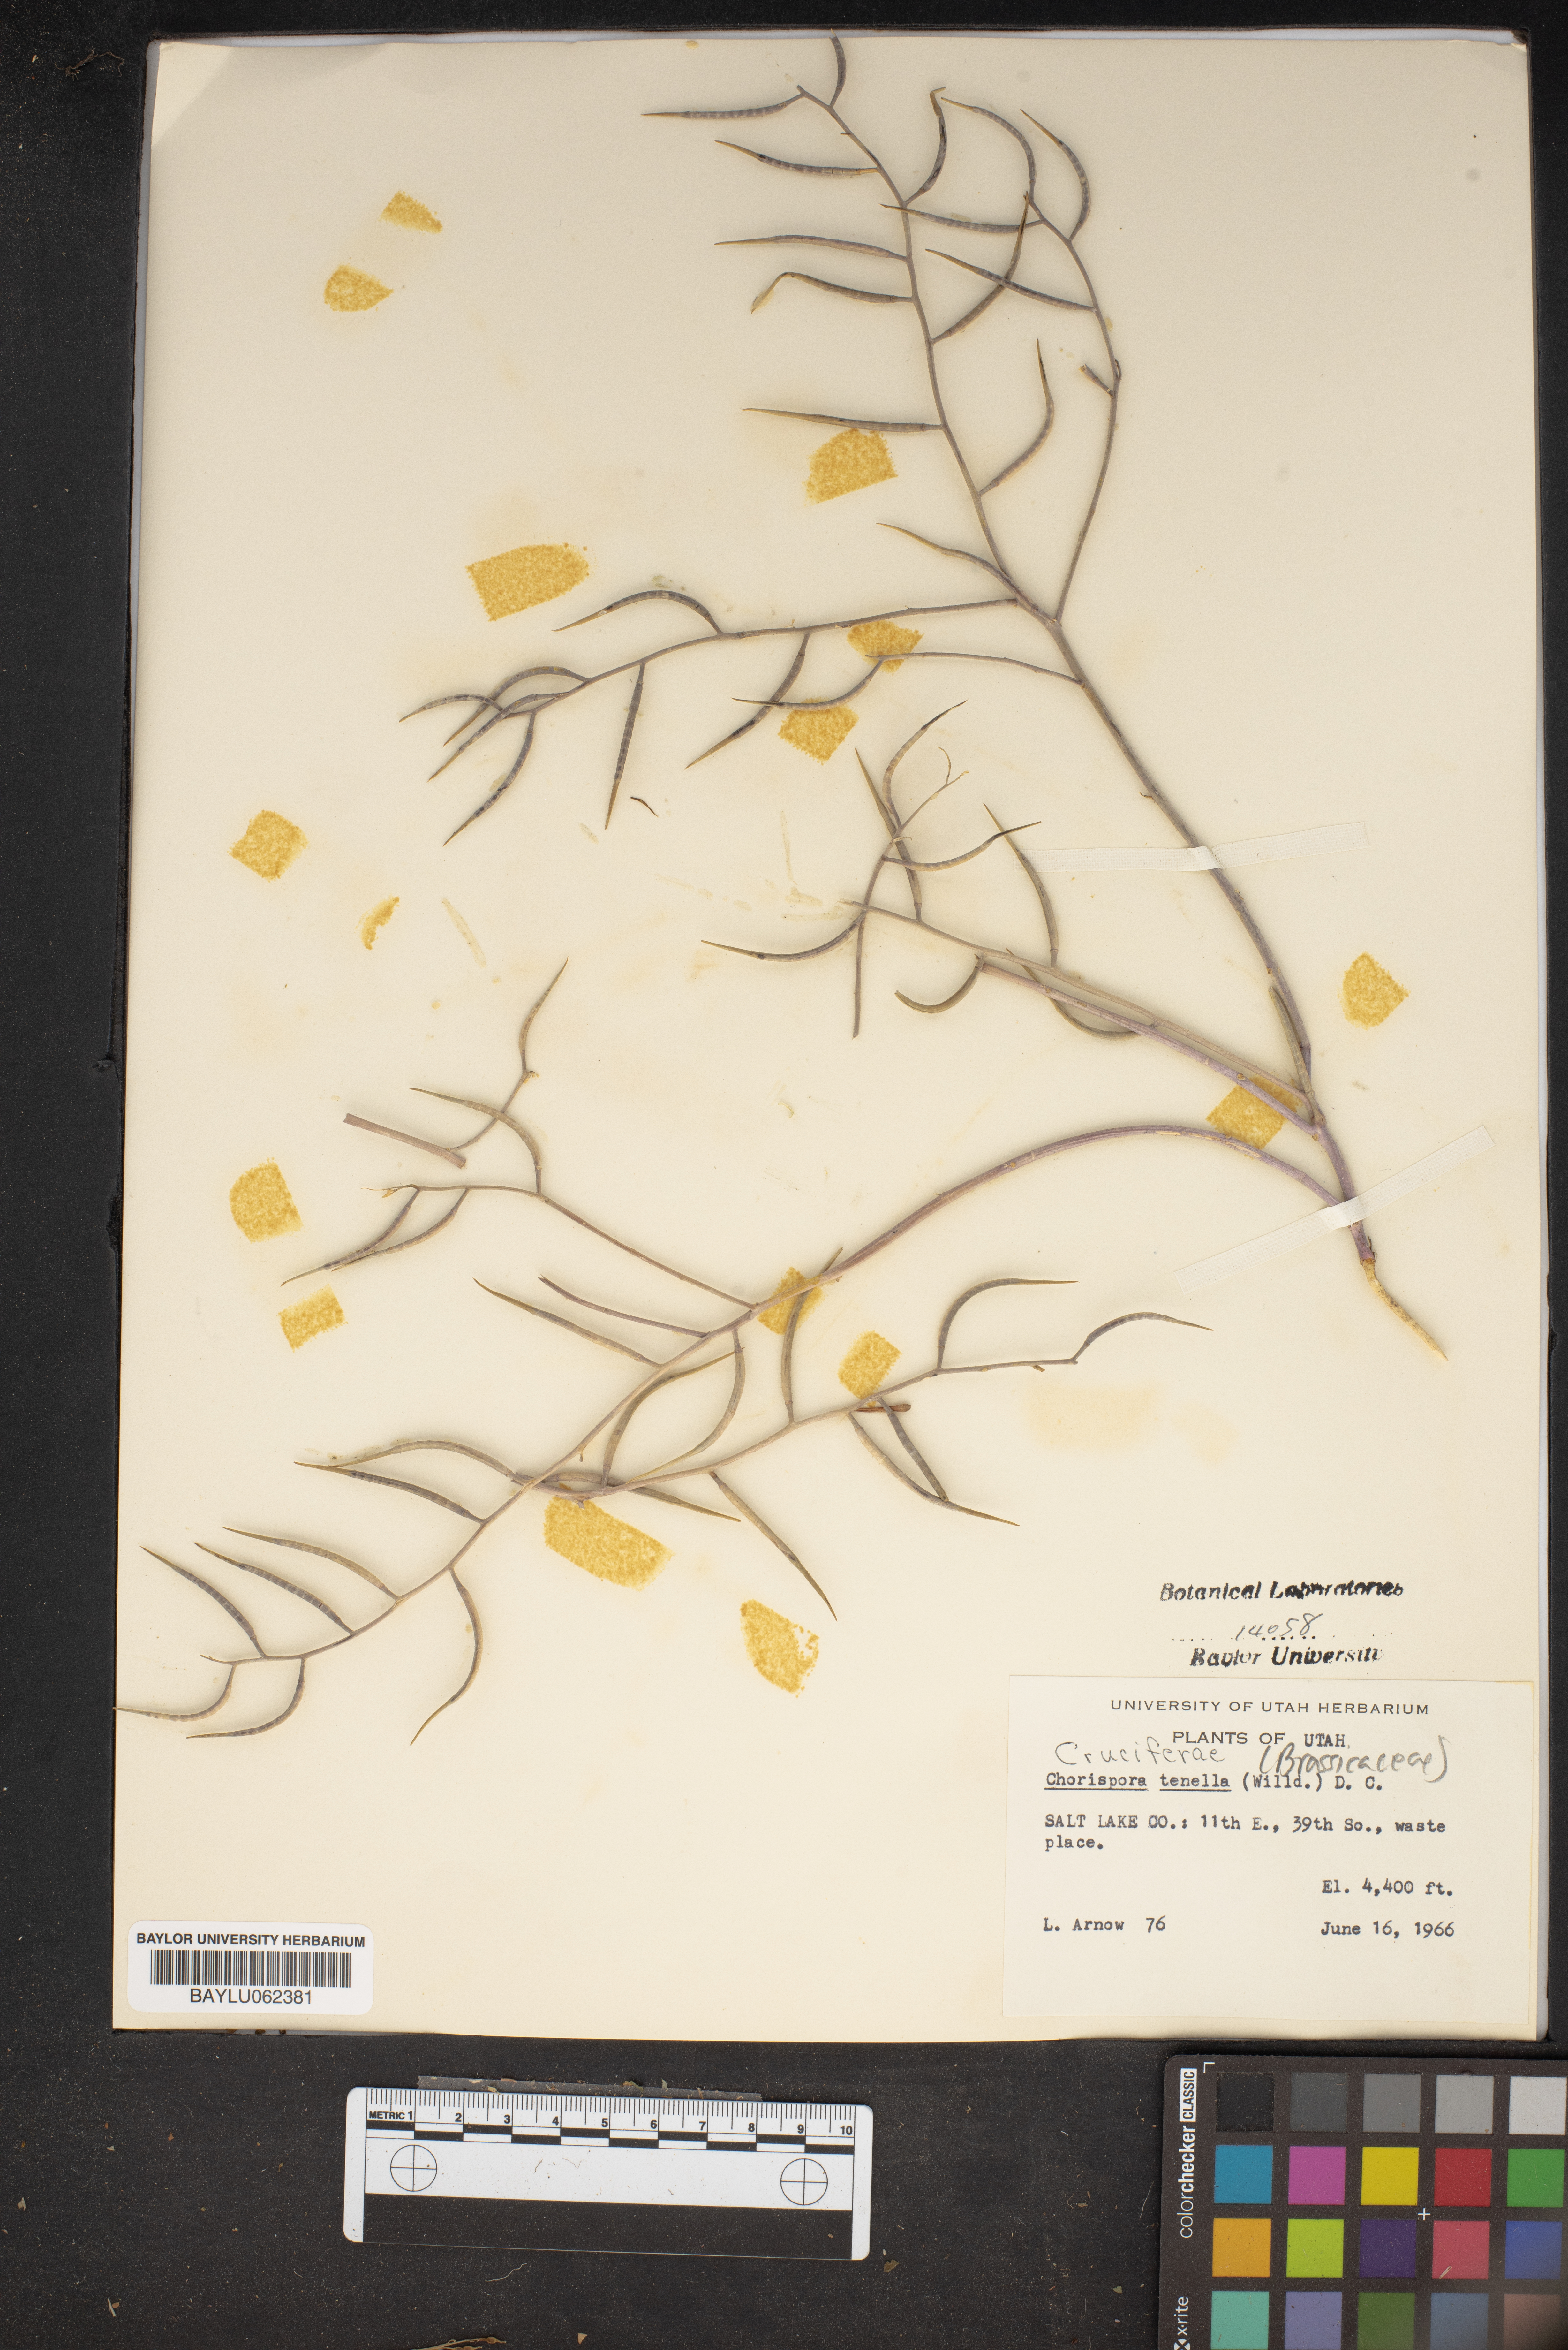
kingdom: Plantae
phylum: Tracheophyta
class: Magnoliopsida
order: Brassicales
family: Brassicaceae
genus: Chorispora
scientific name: Chorispora tenella
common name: Crossflower
